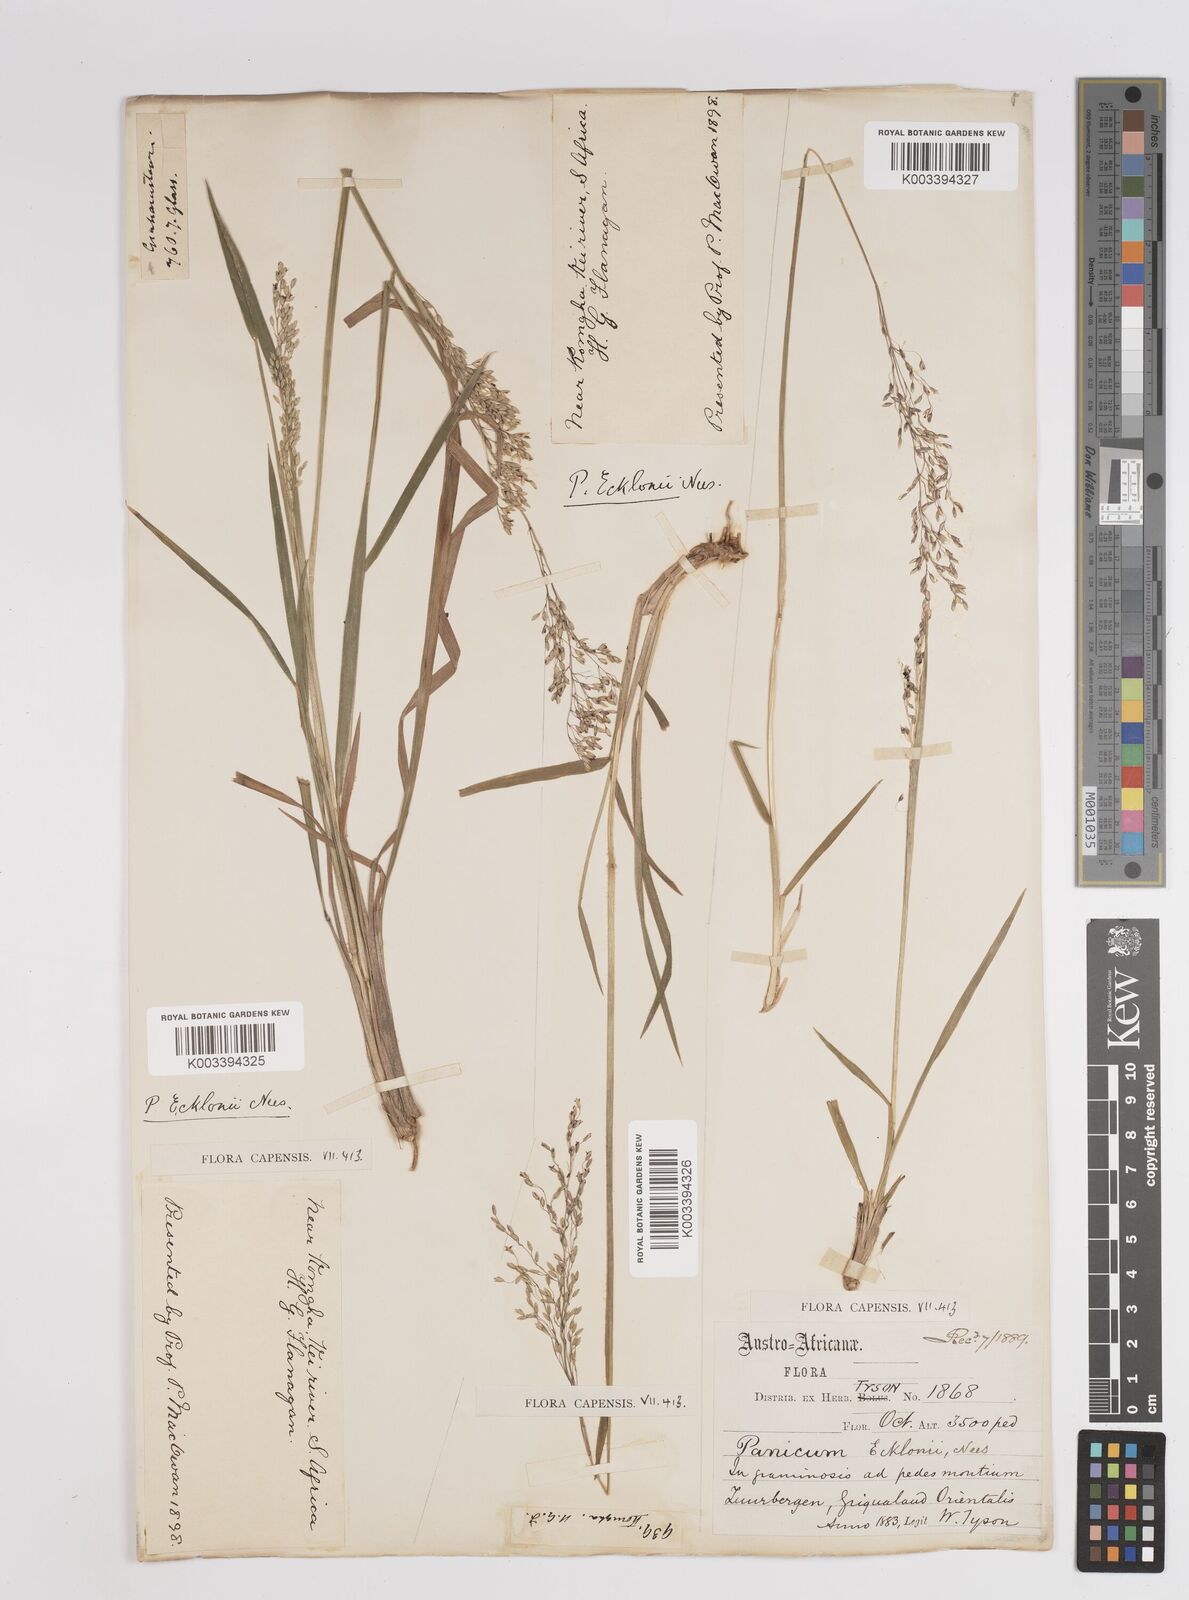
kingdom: Plantae
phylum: Tracheophyta
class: Liliopsida
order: Poales
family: Poaceae
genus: Adenochloa
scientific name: Adenochloa ecklonii
